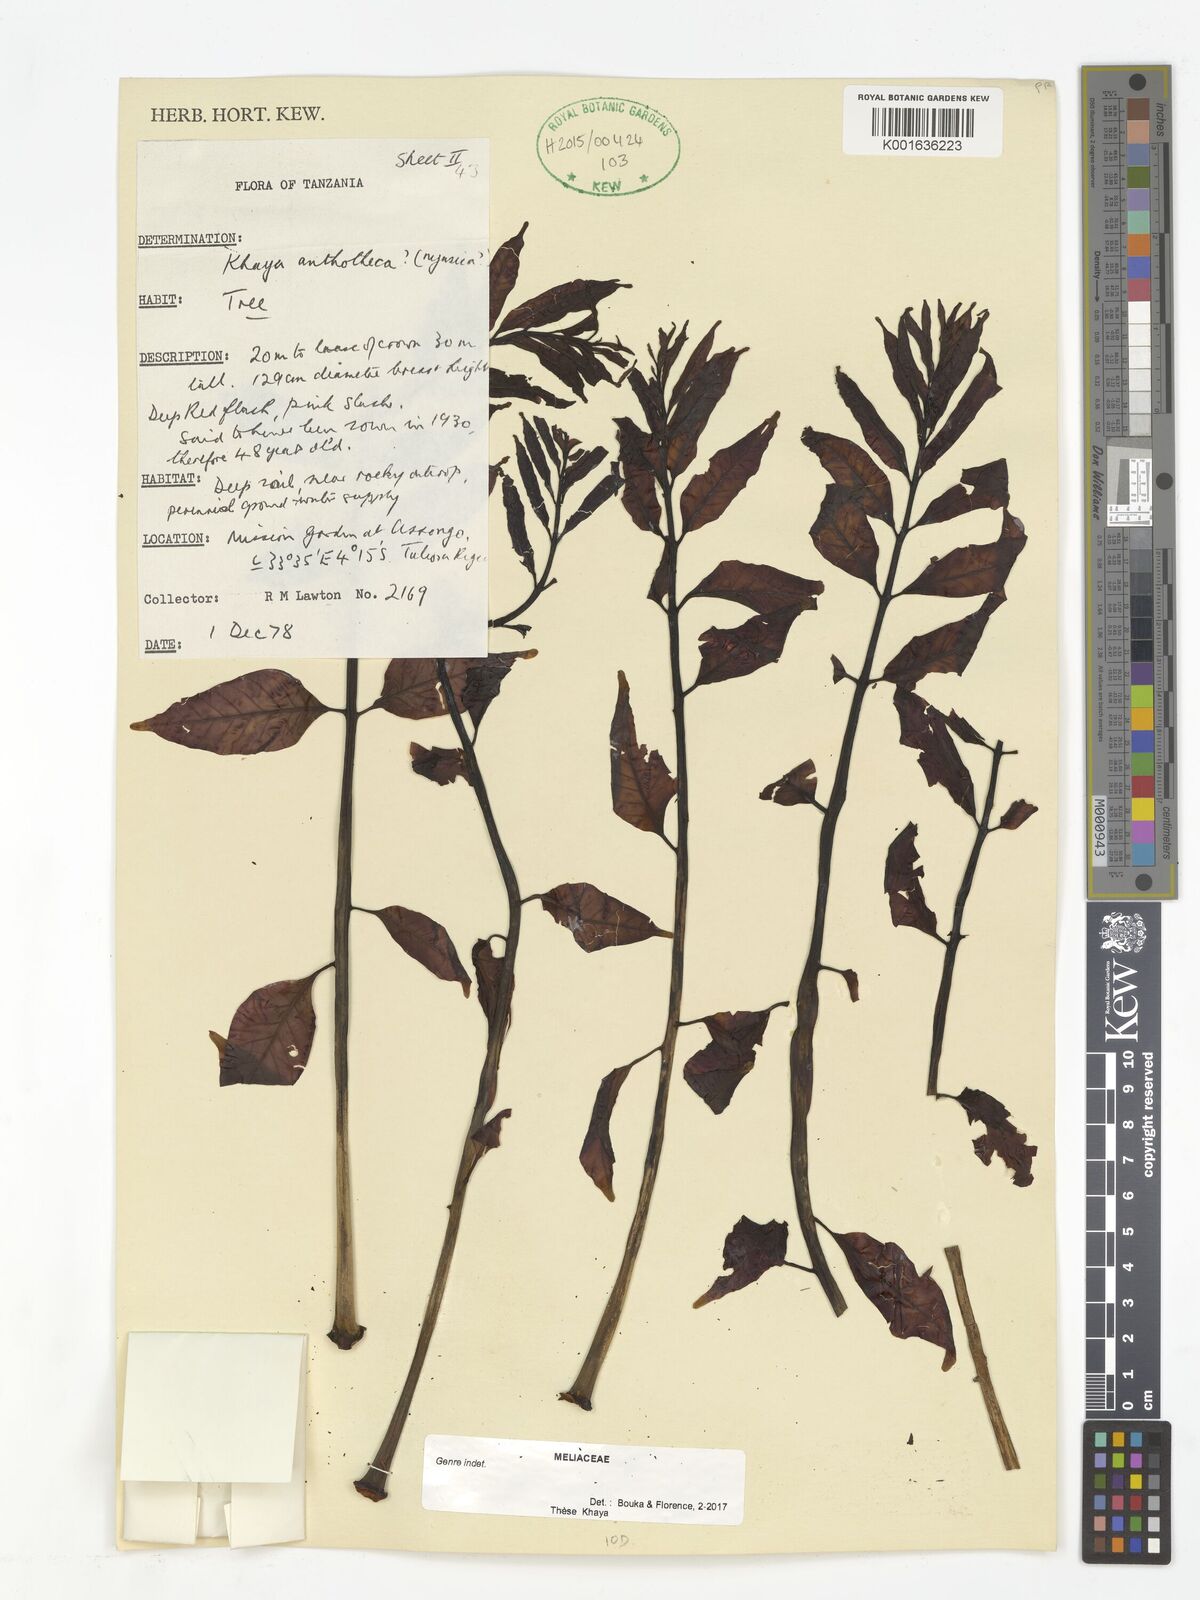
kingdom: Plantae
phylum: Tracheophyta
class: Magnoliopsida
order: Sapindales
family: Meliaceae
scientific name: Meliaceae
